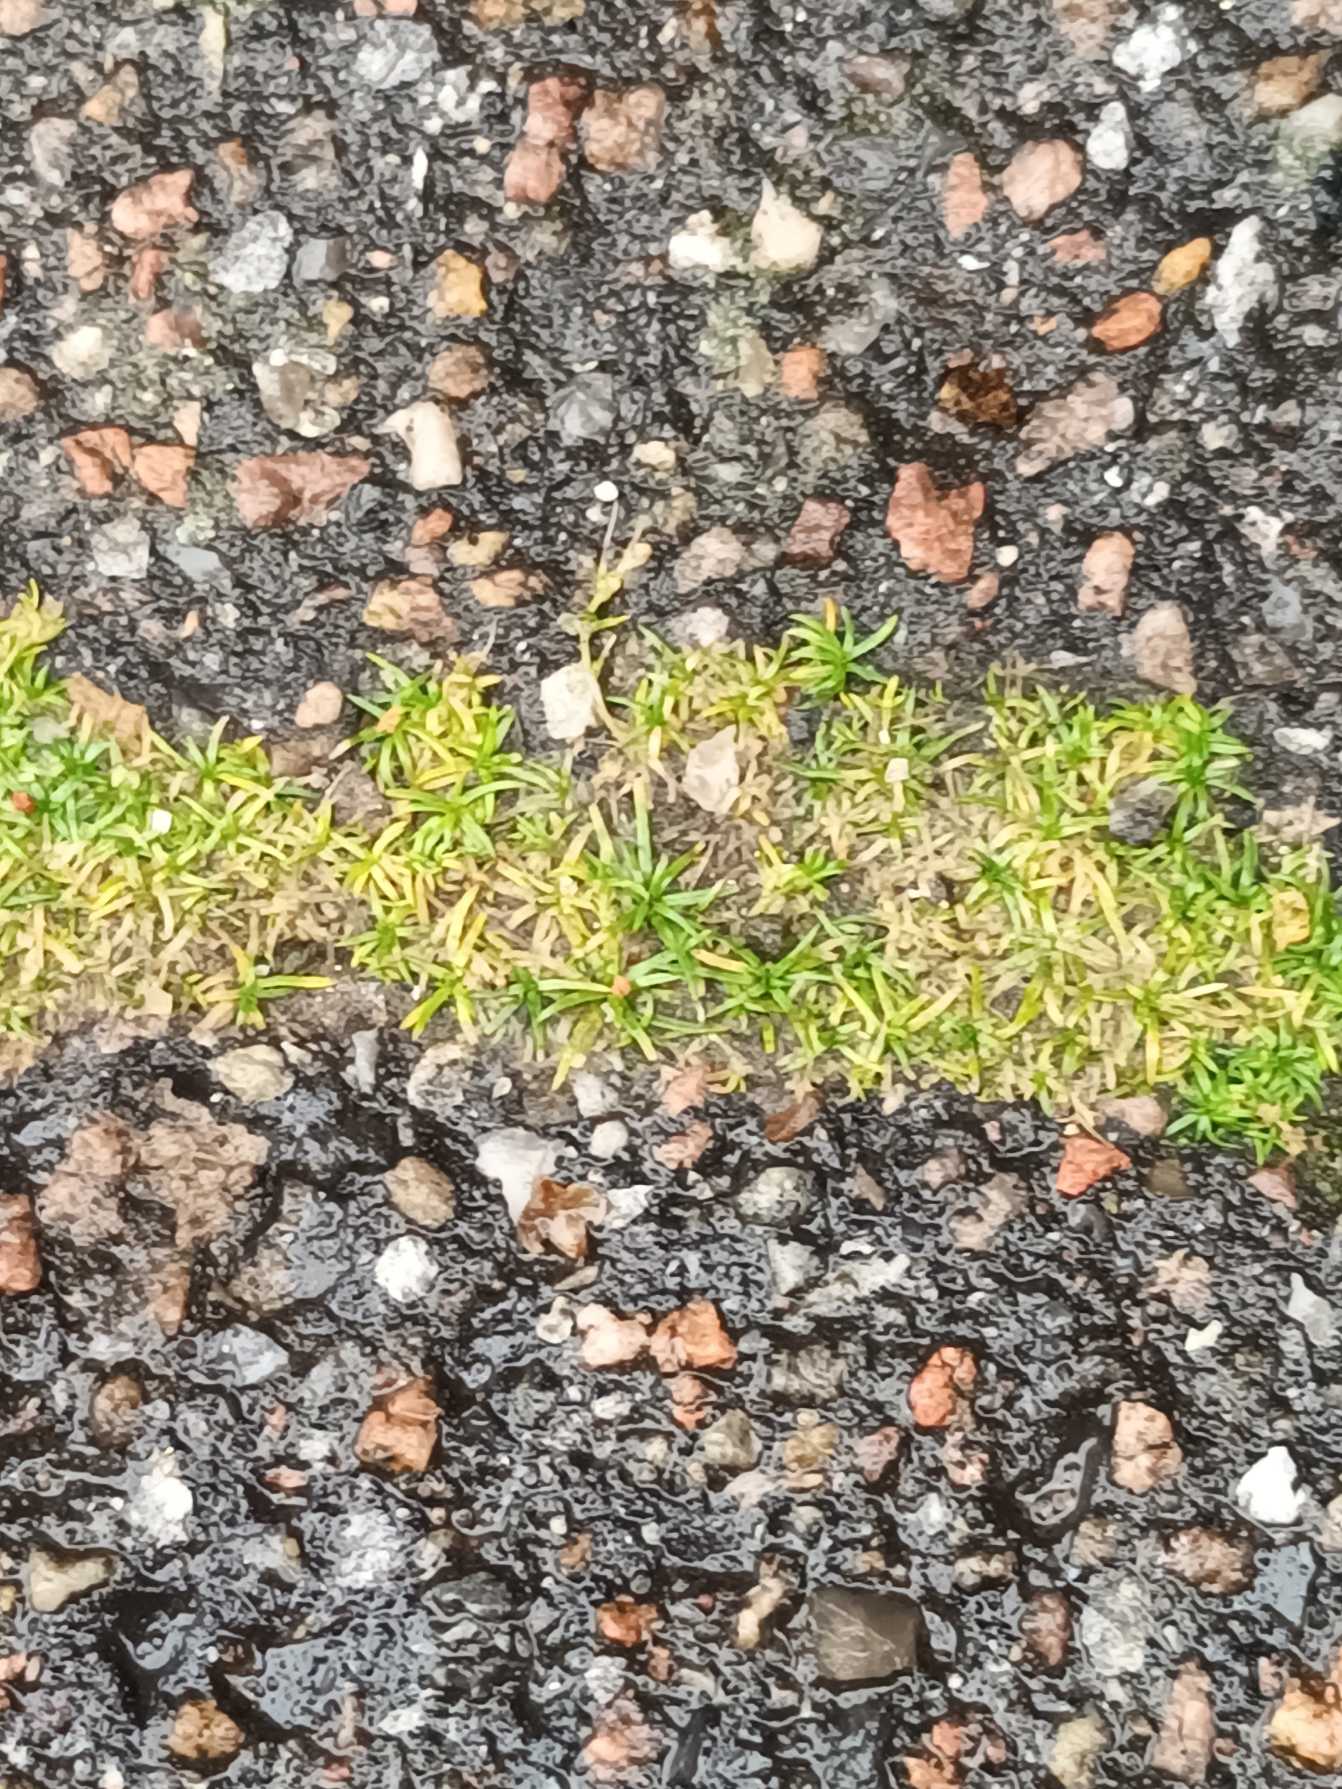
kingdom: Plantae
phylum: Tracheophyta
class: Magnoliopsida
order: Caryophyllales
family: Caryophyllaceae
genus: Sagina
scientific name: Sagina procumbens
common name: Almindelig firling
